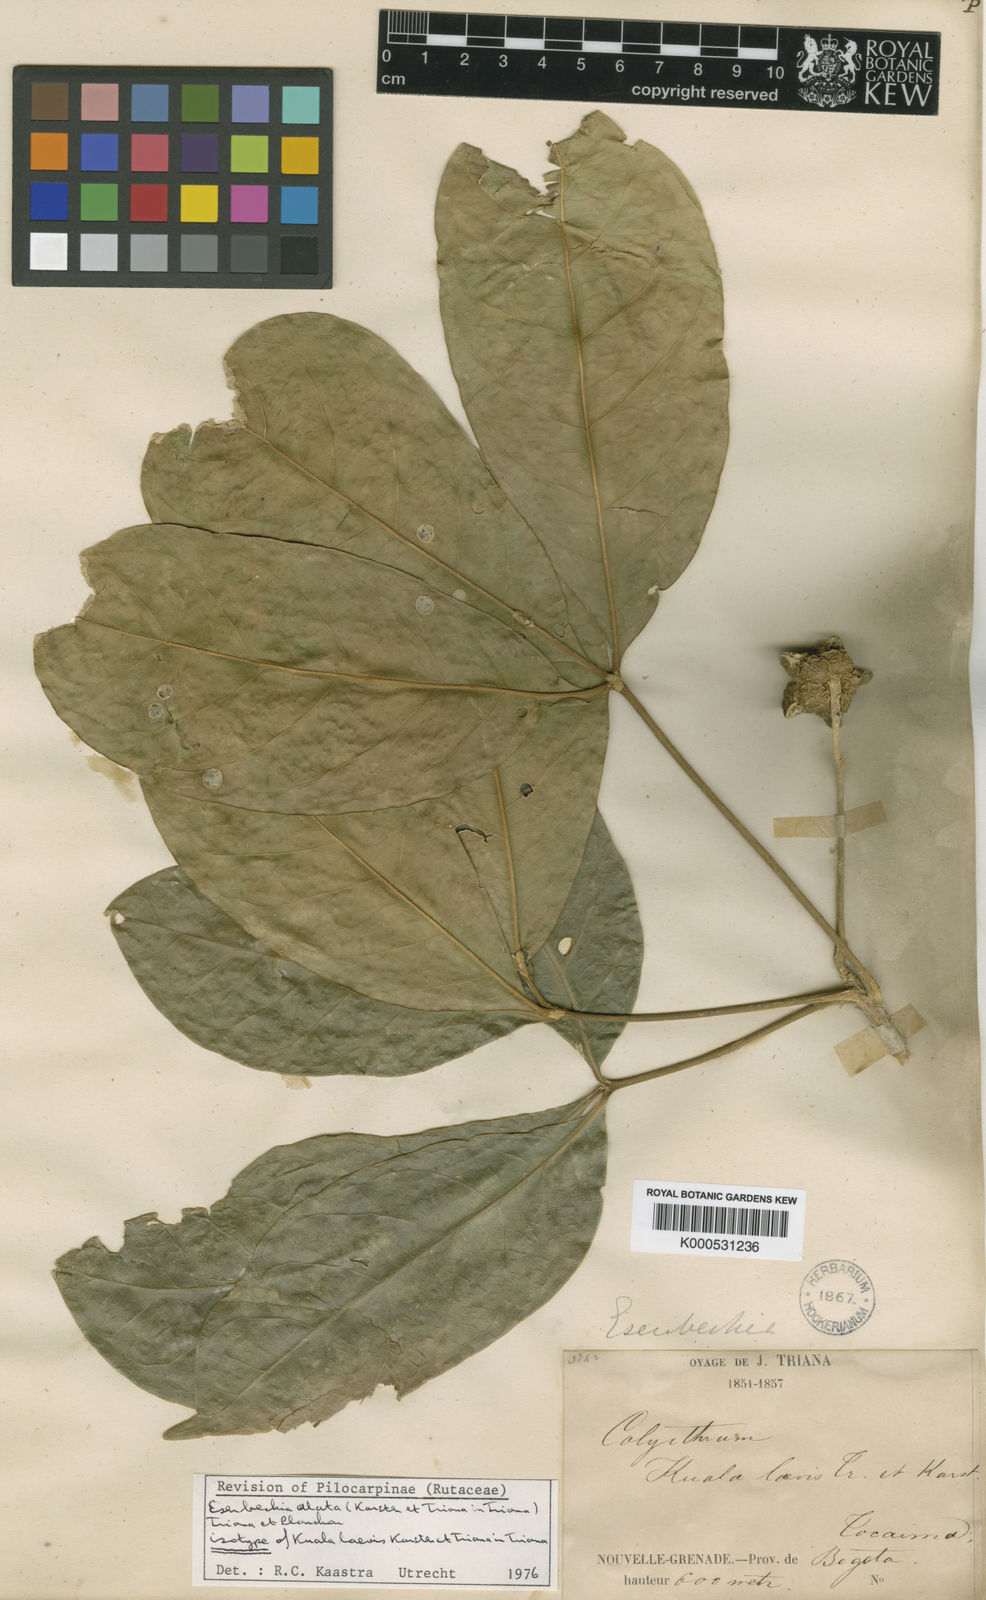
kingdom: Plantae
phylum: Tracheophyta
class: Magnoliopsida
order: Sapindales
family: Rutaceae
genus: Esenbeckia
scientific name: Esenbeckia alata
